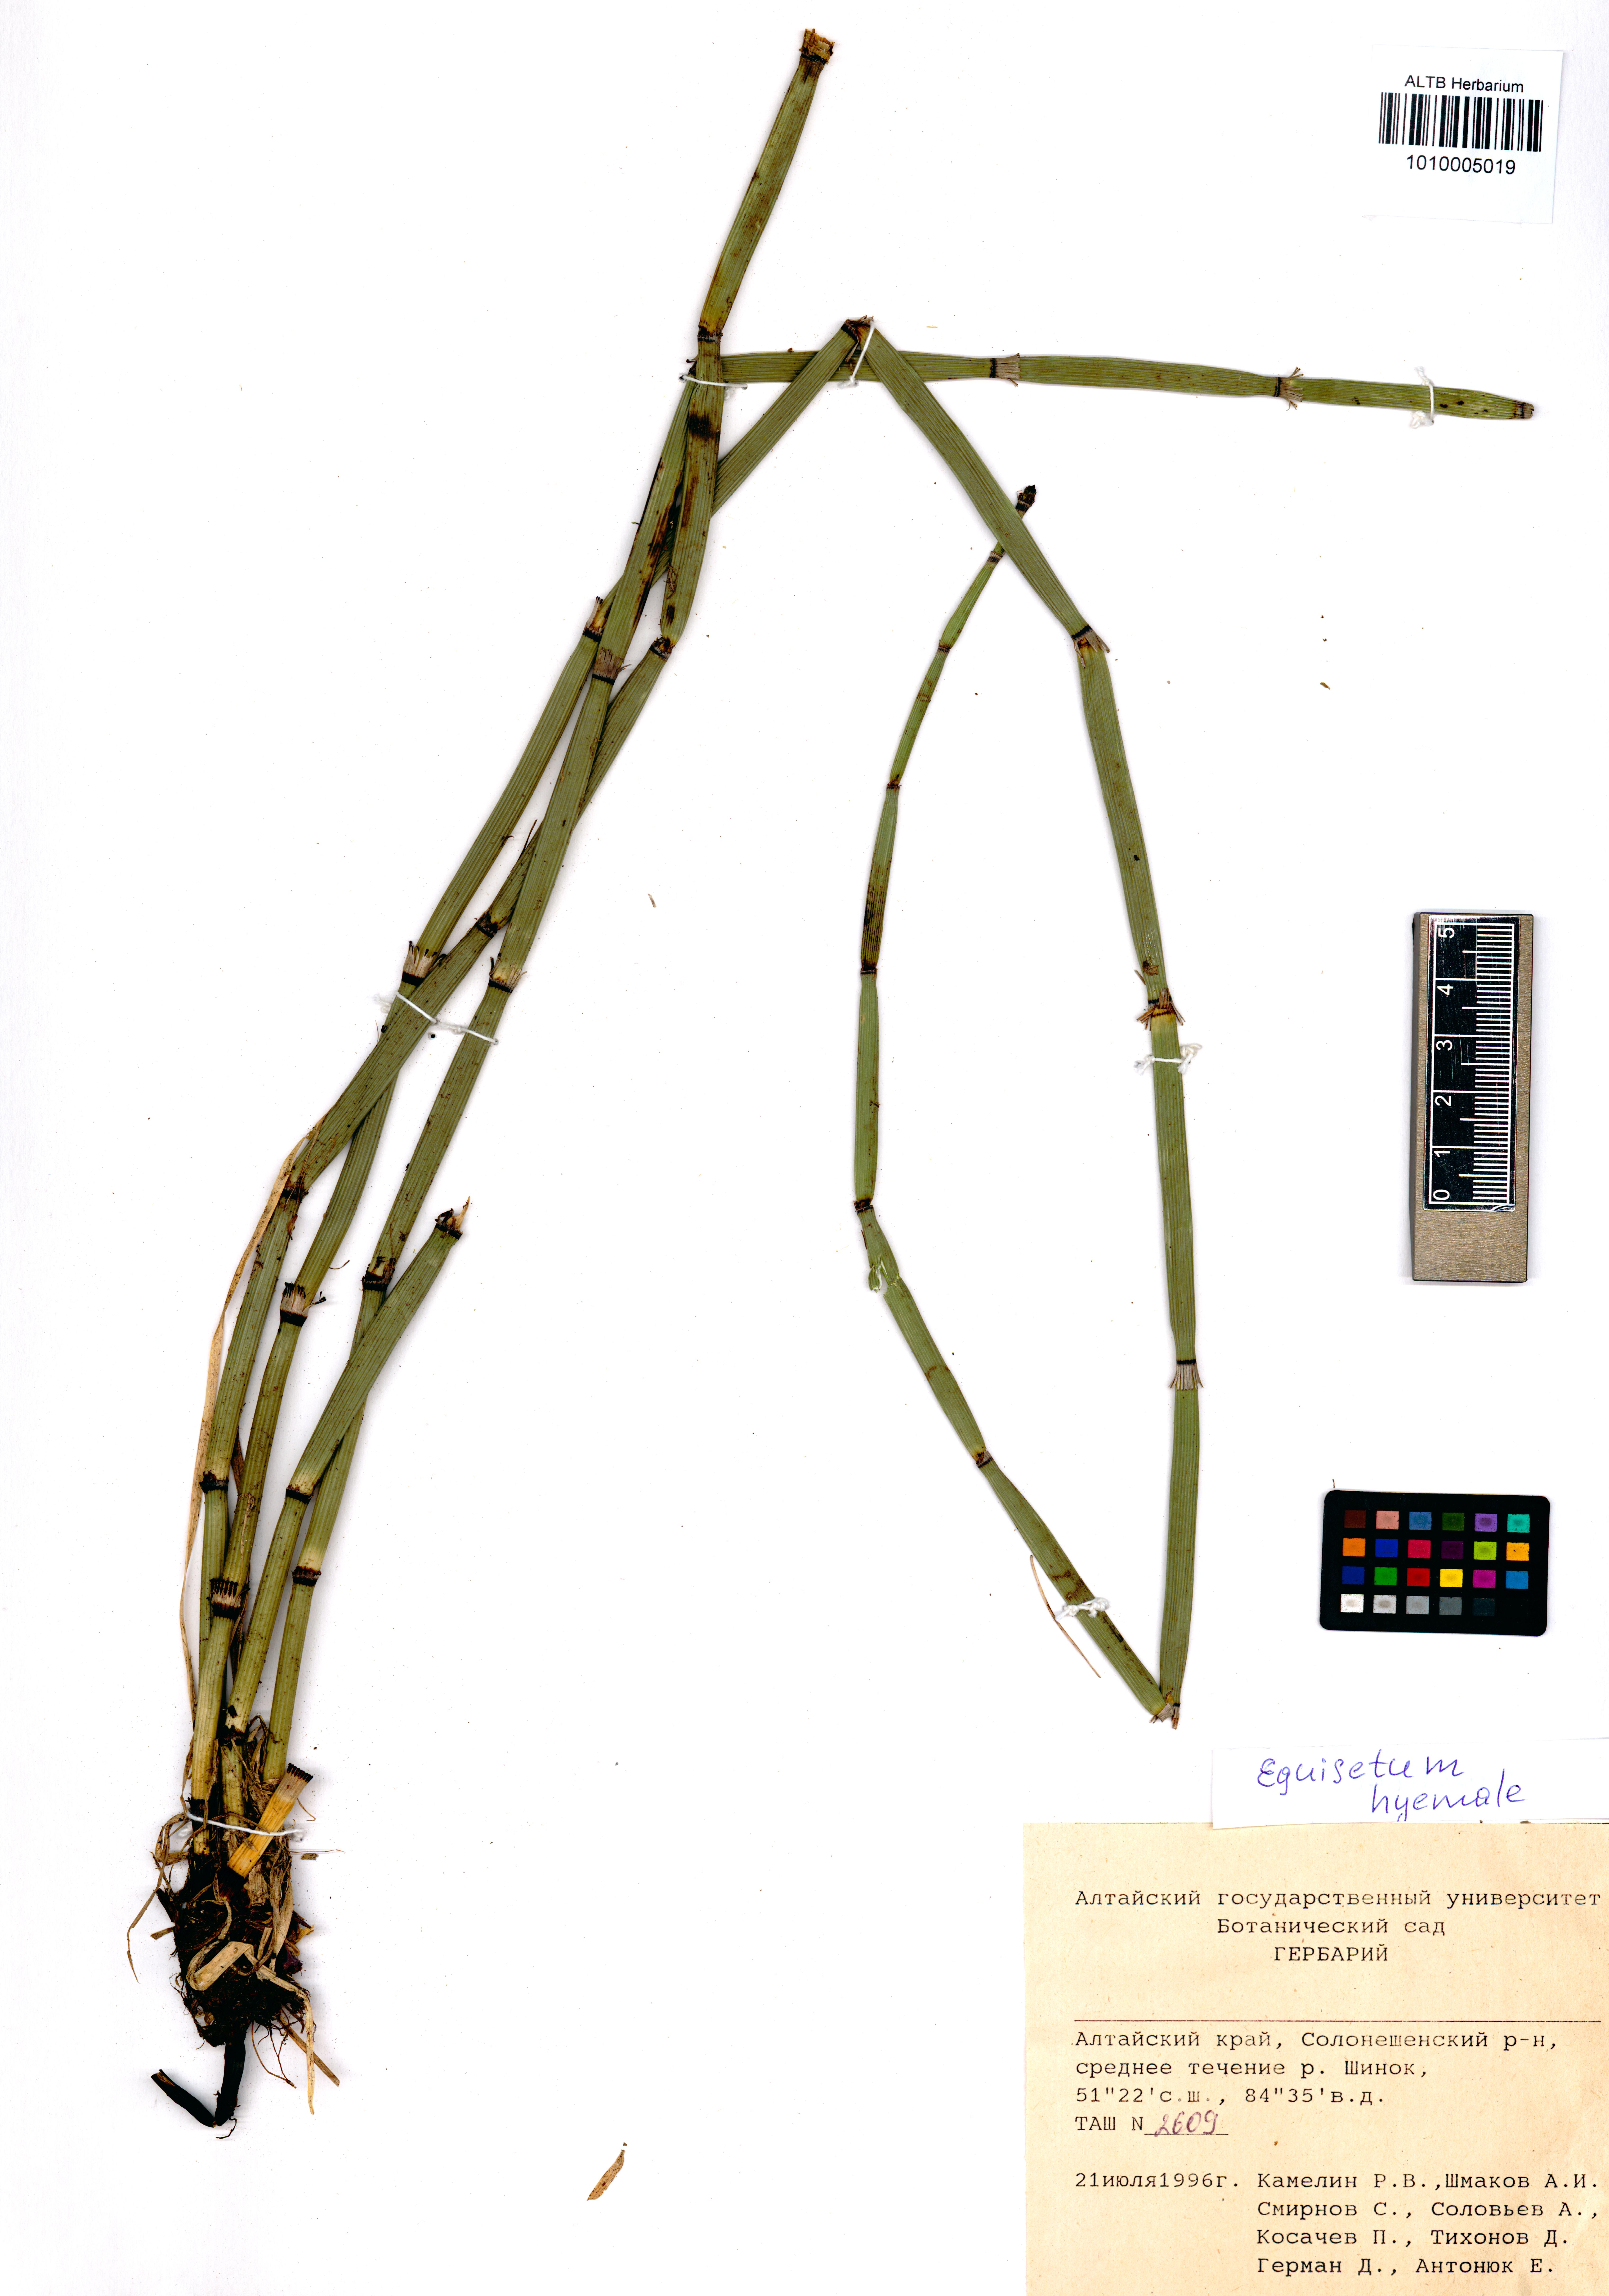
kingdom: Plantae
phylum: Tracheophyta
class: Polypodiopsida
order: Equisetales
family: Equisetaceae
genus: Equisetum
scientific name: Equisetum hyemale
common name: Rough horsetail
